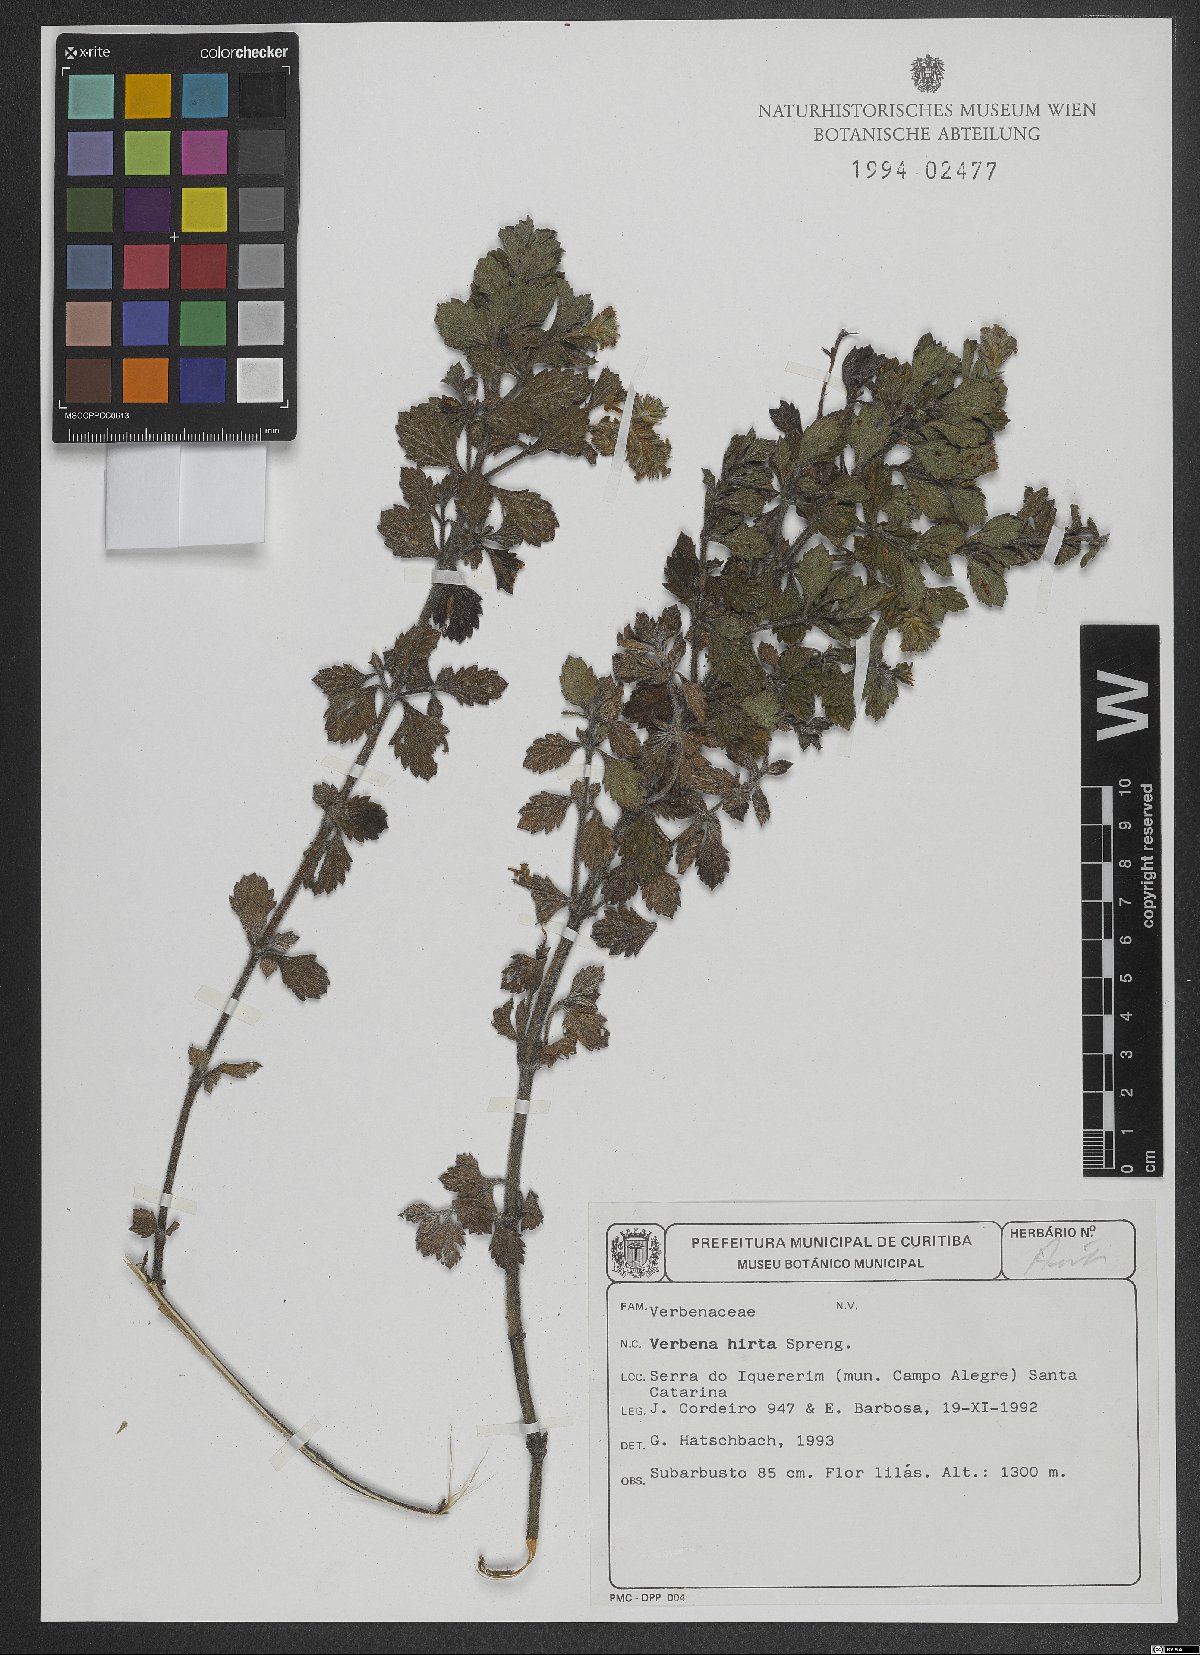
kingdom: Plantae
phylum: Tracheophyta
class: Magnoliopsida
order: Lamiales
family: Verbenaceae
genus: Verbena
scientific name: Verbena hirta
